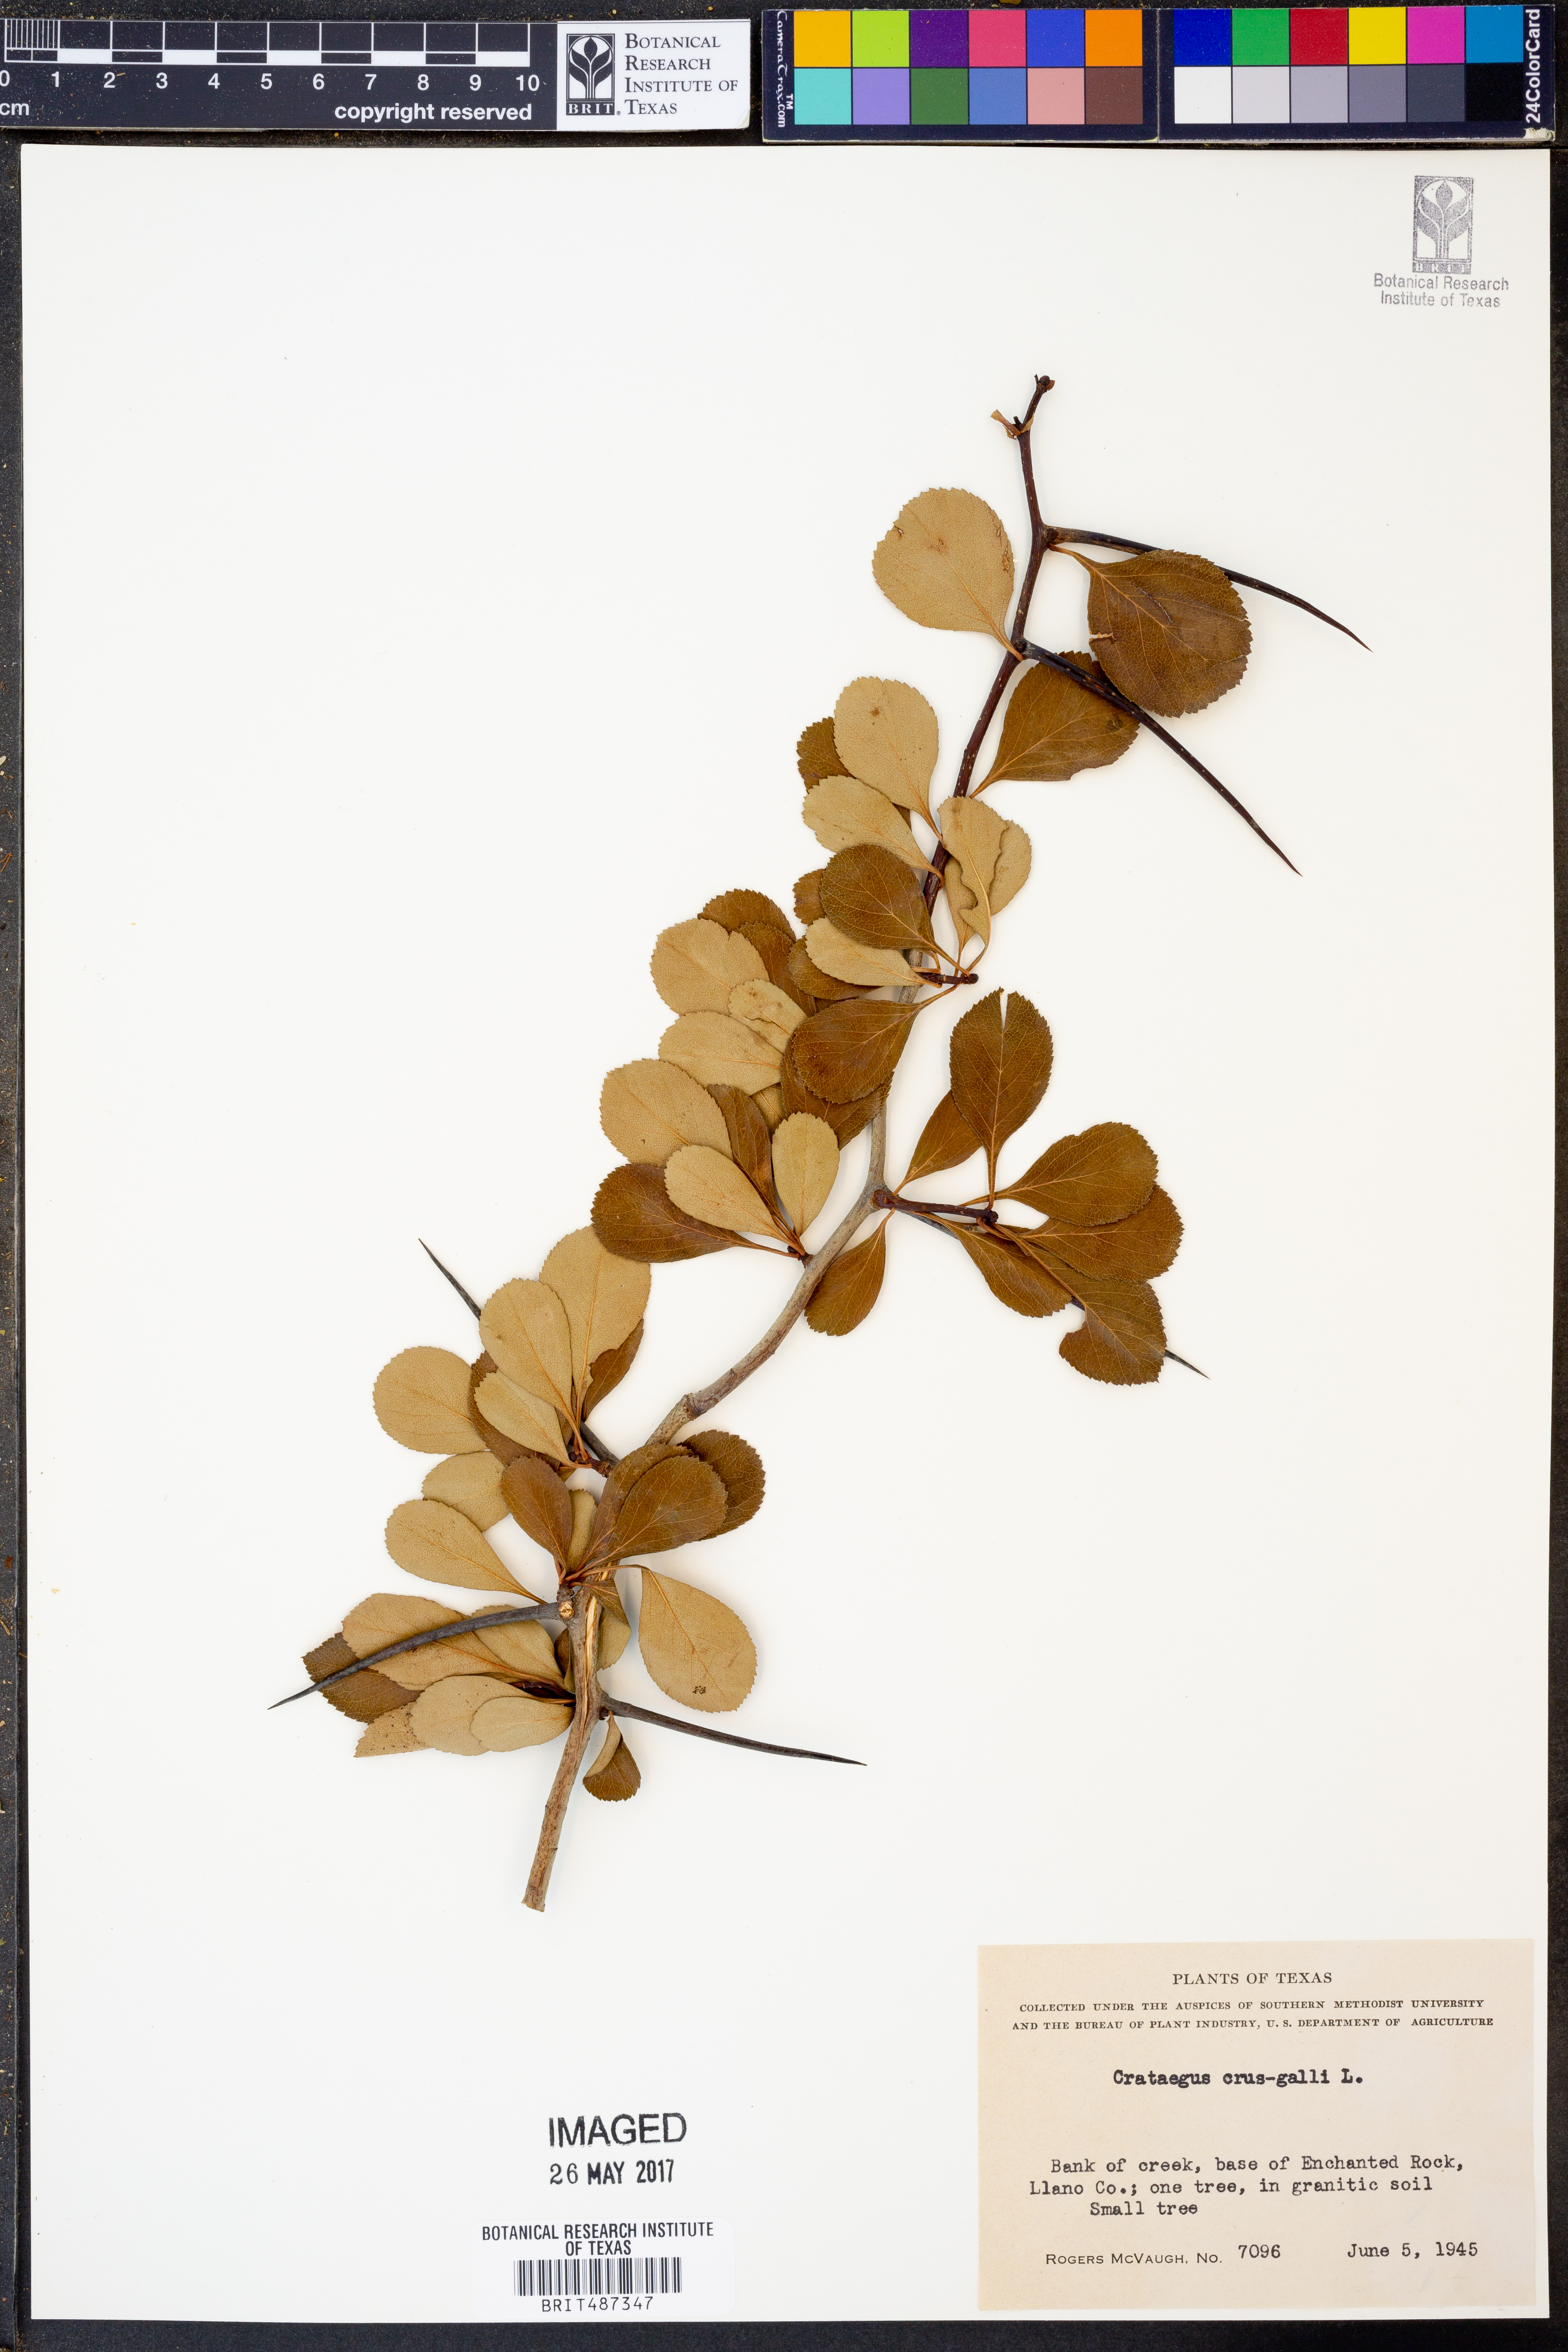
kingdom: Plantae
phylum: Tracheophyta
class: Magnoliopsida
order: Rosales
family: Rosaceae
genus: Crataegus
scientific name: Crataegus crus-galli
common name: Cockspurthorn
